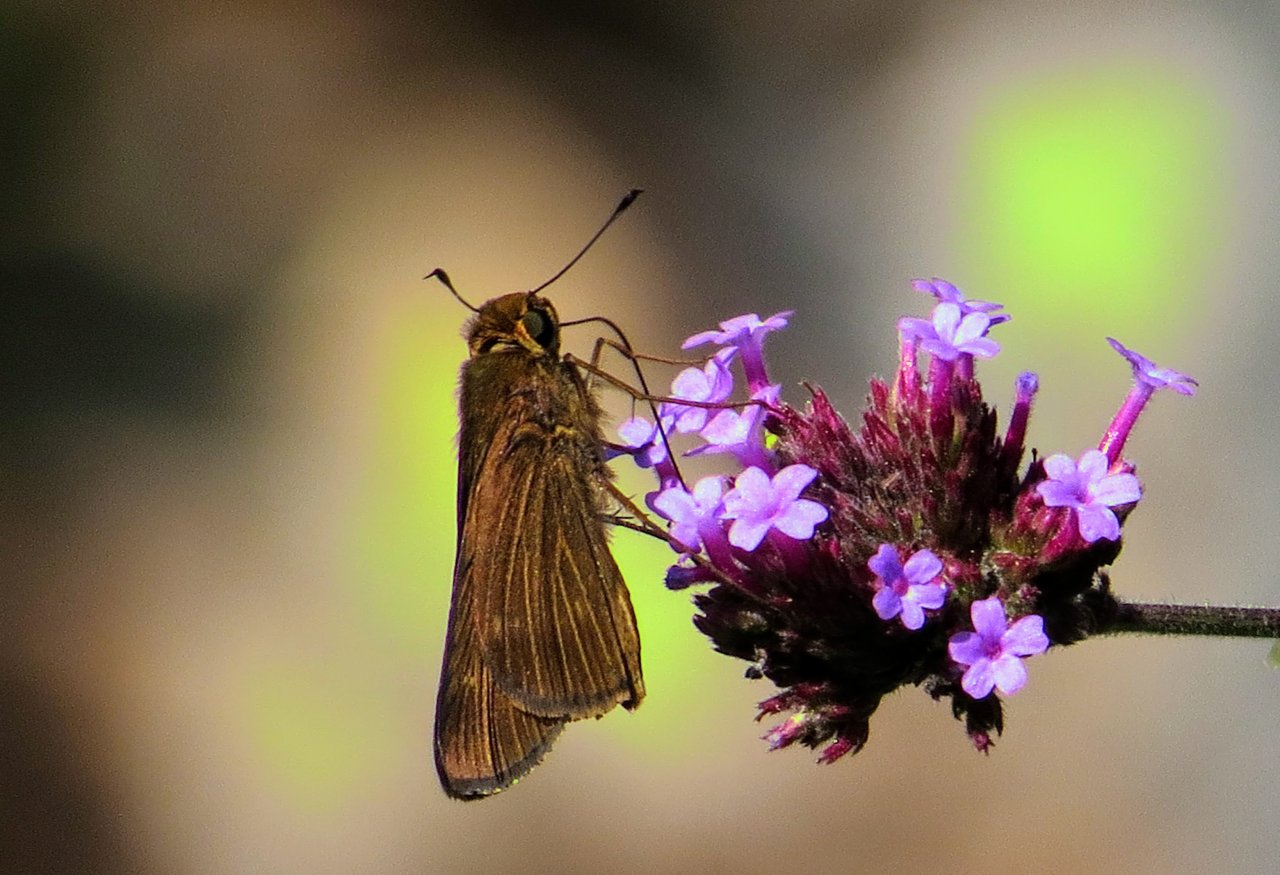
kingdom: Animalia
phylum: Arthropoda
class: Insecta
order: Lepidoptera
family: Hesperiidae
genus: Panoquina
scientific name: Panoquina ocola
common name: Ocola Skipper
